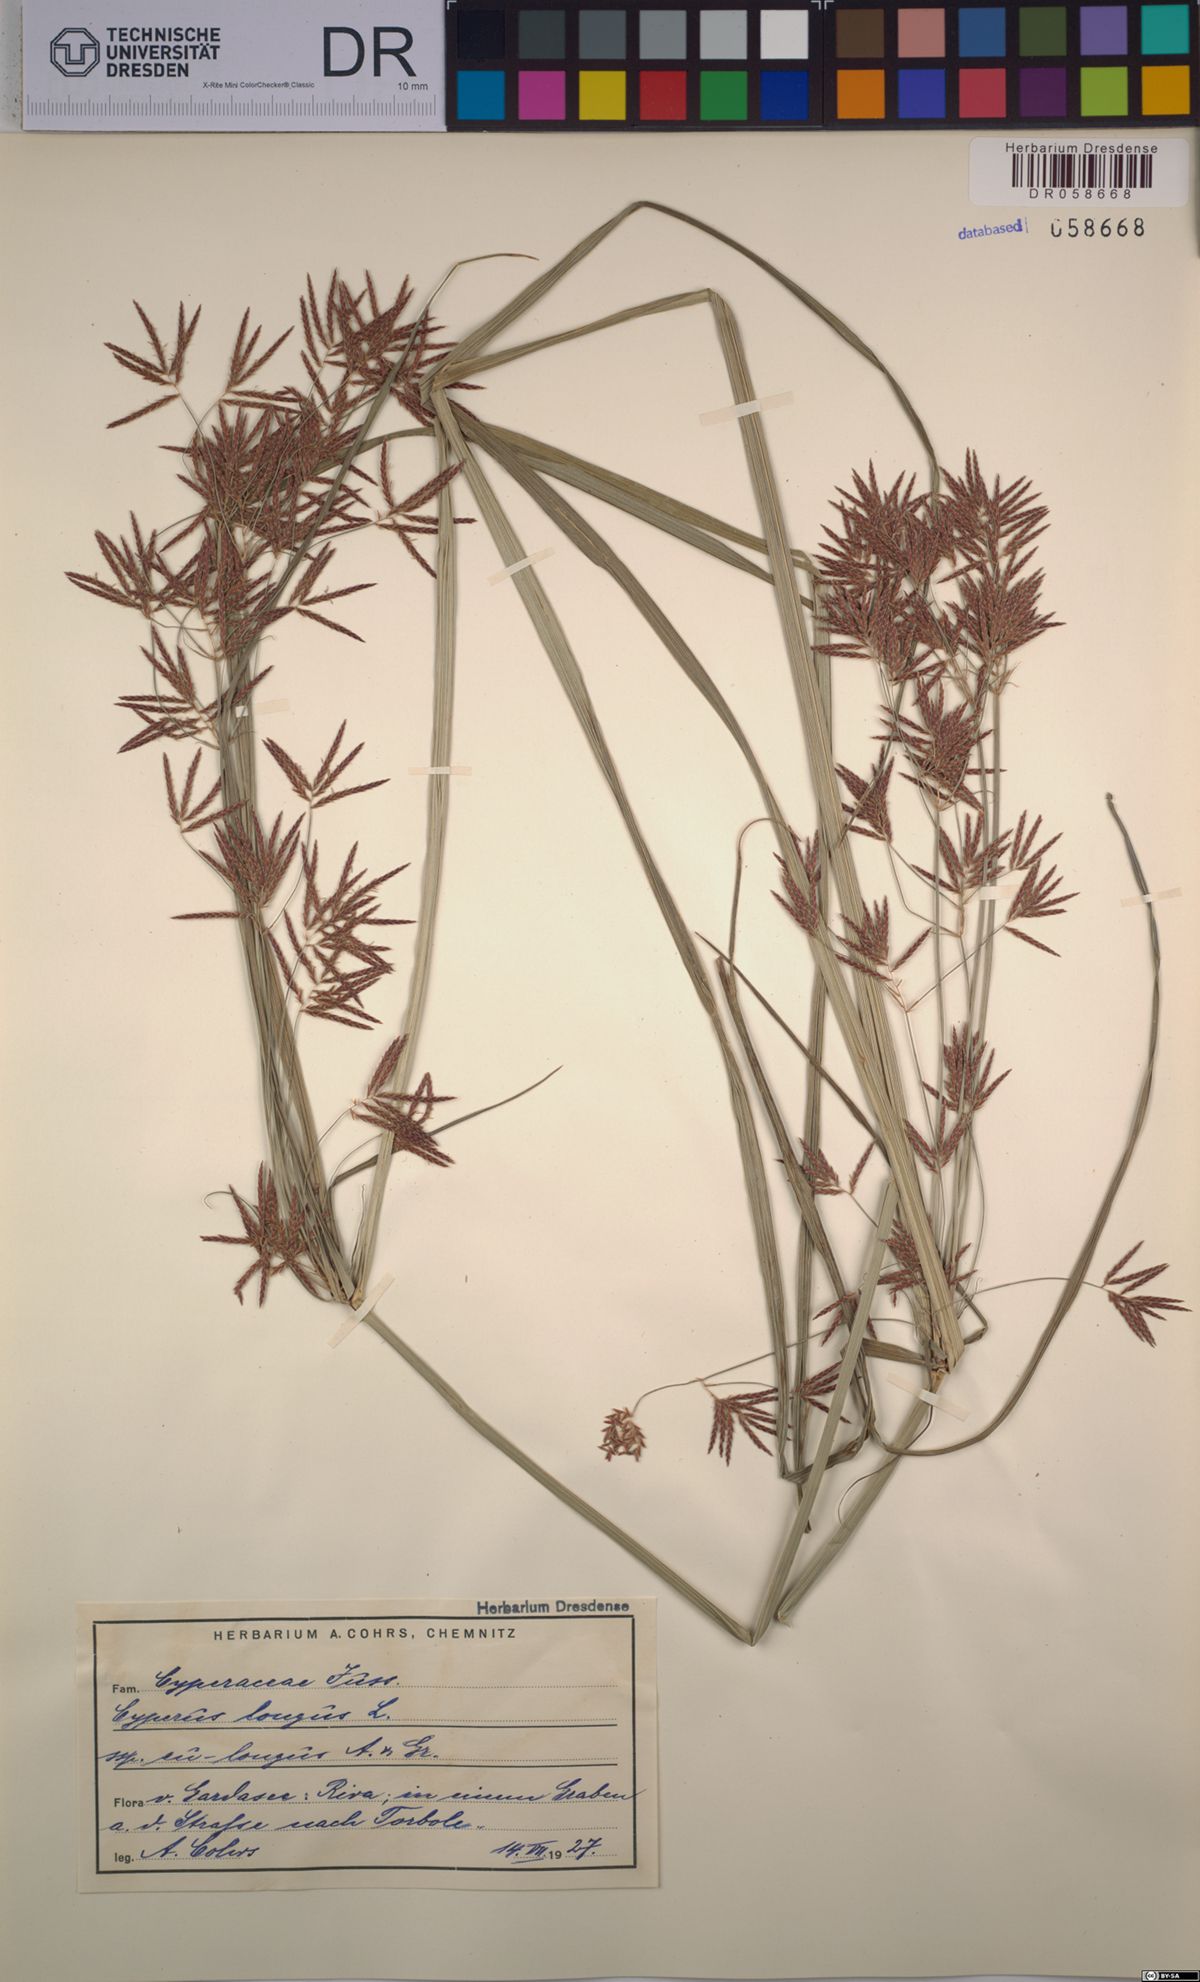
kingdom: Plantae
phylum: Tracheophyta
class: Liliopsida
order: Poales
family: Cyperaceae
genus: Cyperus
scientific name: Cyperus longus
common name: Galingale
